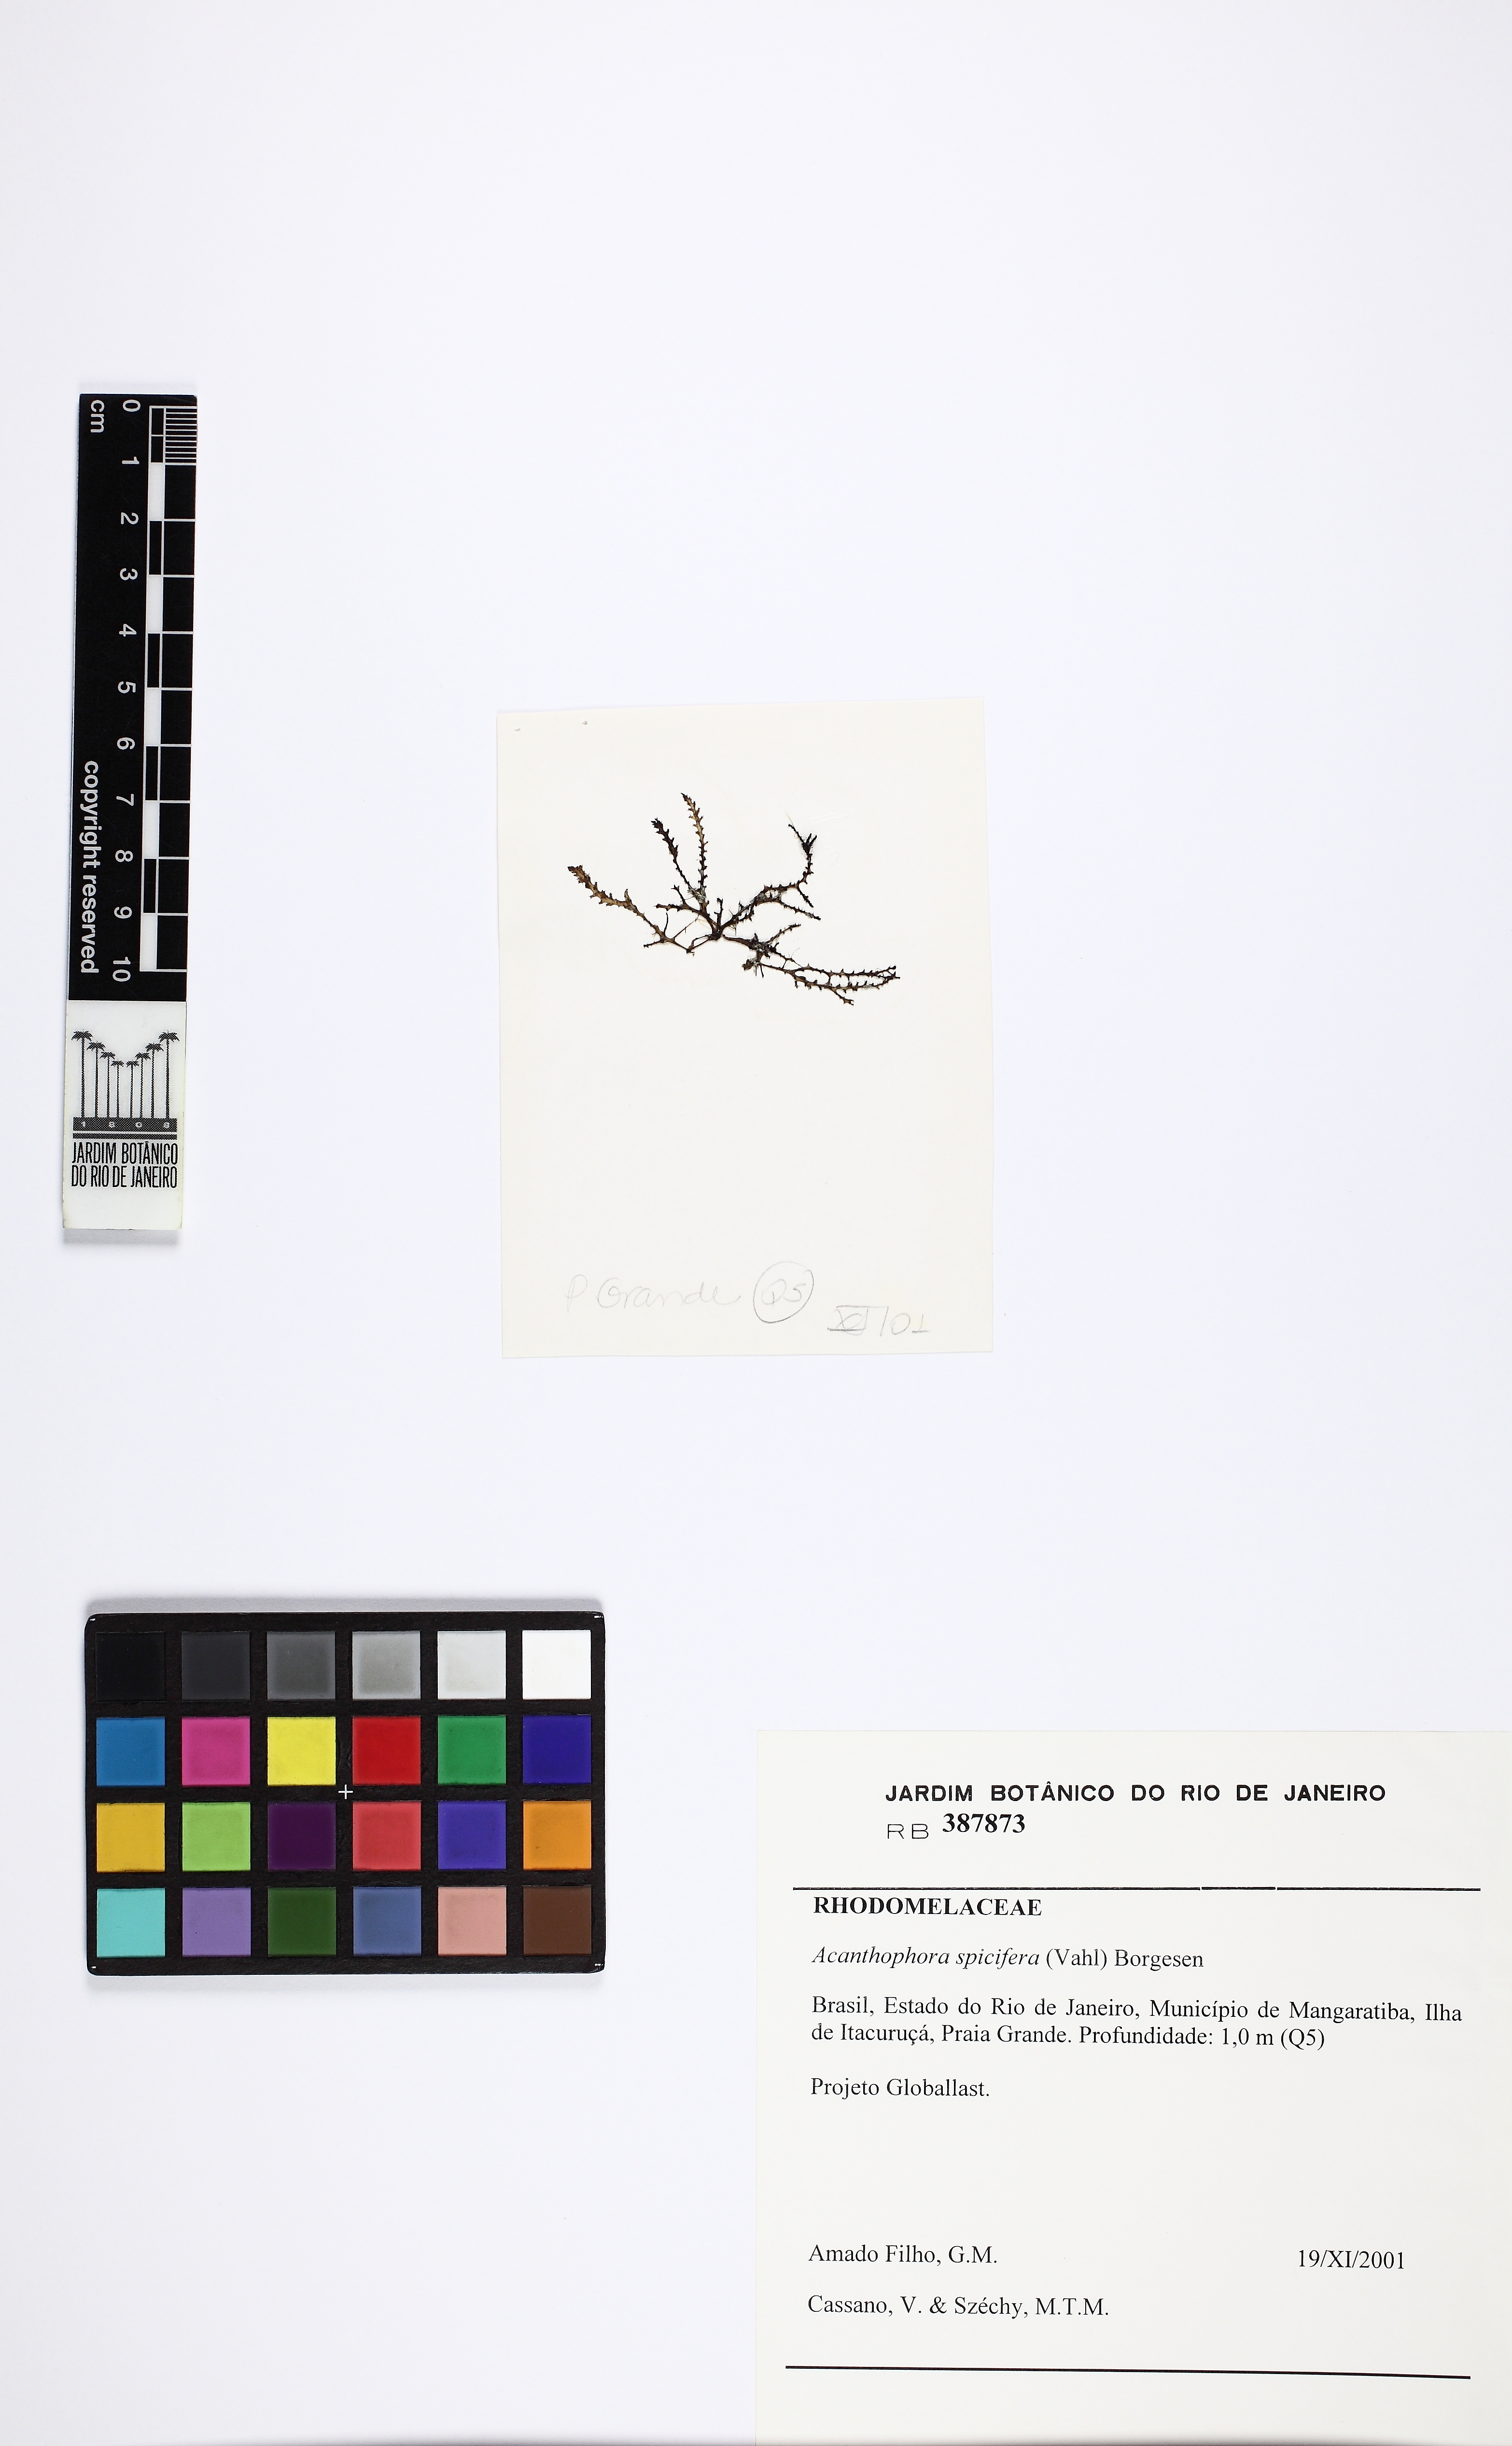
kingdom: Plantae
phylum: Rhodophyta
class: Florideophyceae
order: Ceramiales
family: Rhodomelaceae
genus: Acanthophora
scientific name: Acanthophora spicifera
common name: Red algae
